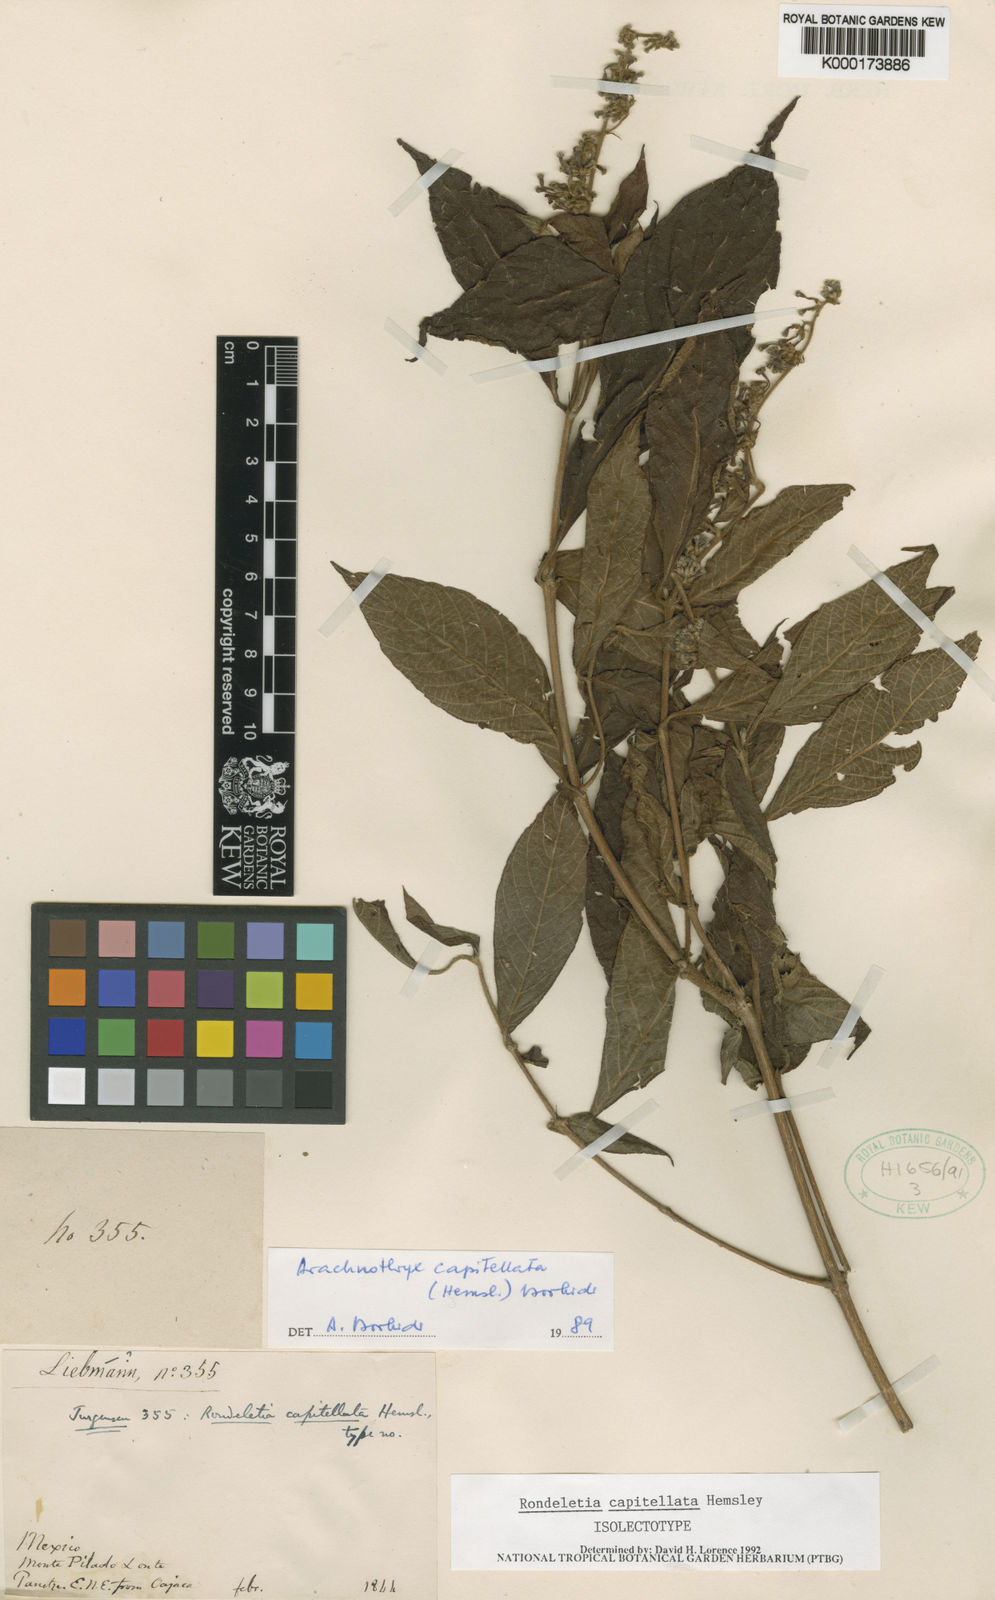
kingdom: Plantae
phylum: Tracheophyta
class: Magnoliopsida
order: Gentianales
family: Rubiaceae
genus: Arachnothryx
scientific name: Arachnothryx capitellata
